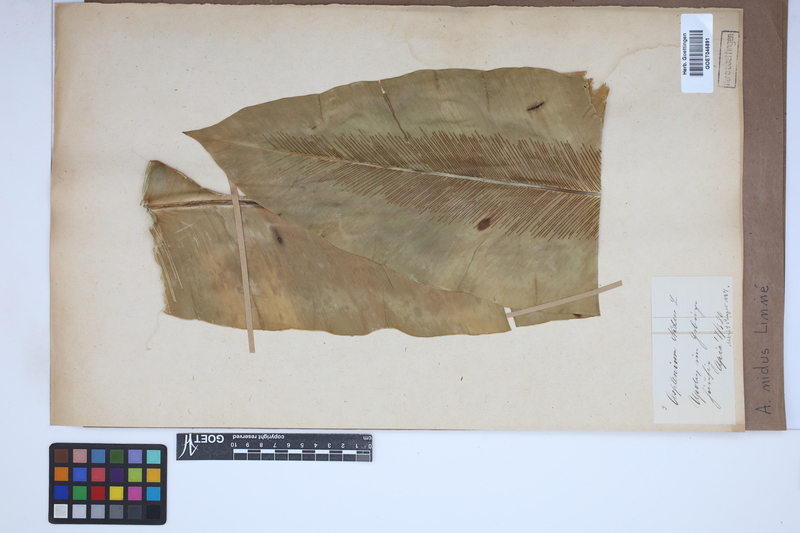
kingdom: Plantae
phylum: Tracheophyta
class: Polypodiopsida
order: Polypodiales
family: Aspleniaceae
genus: Asplenium
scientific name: Asplenium nidus
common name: Bird's-nest fern
